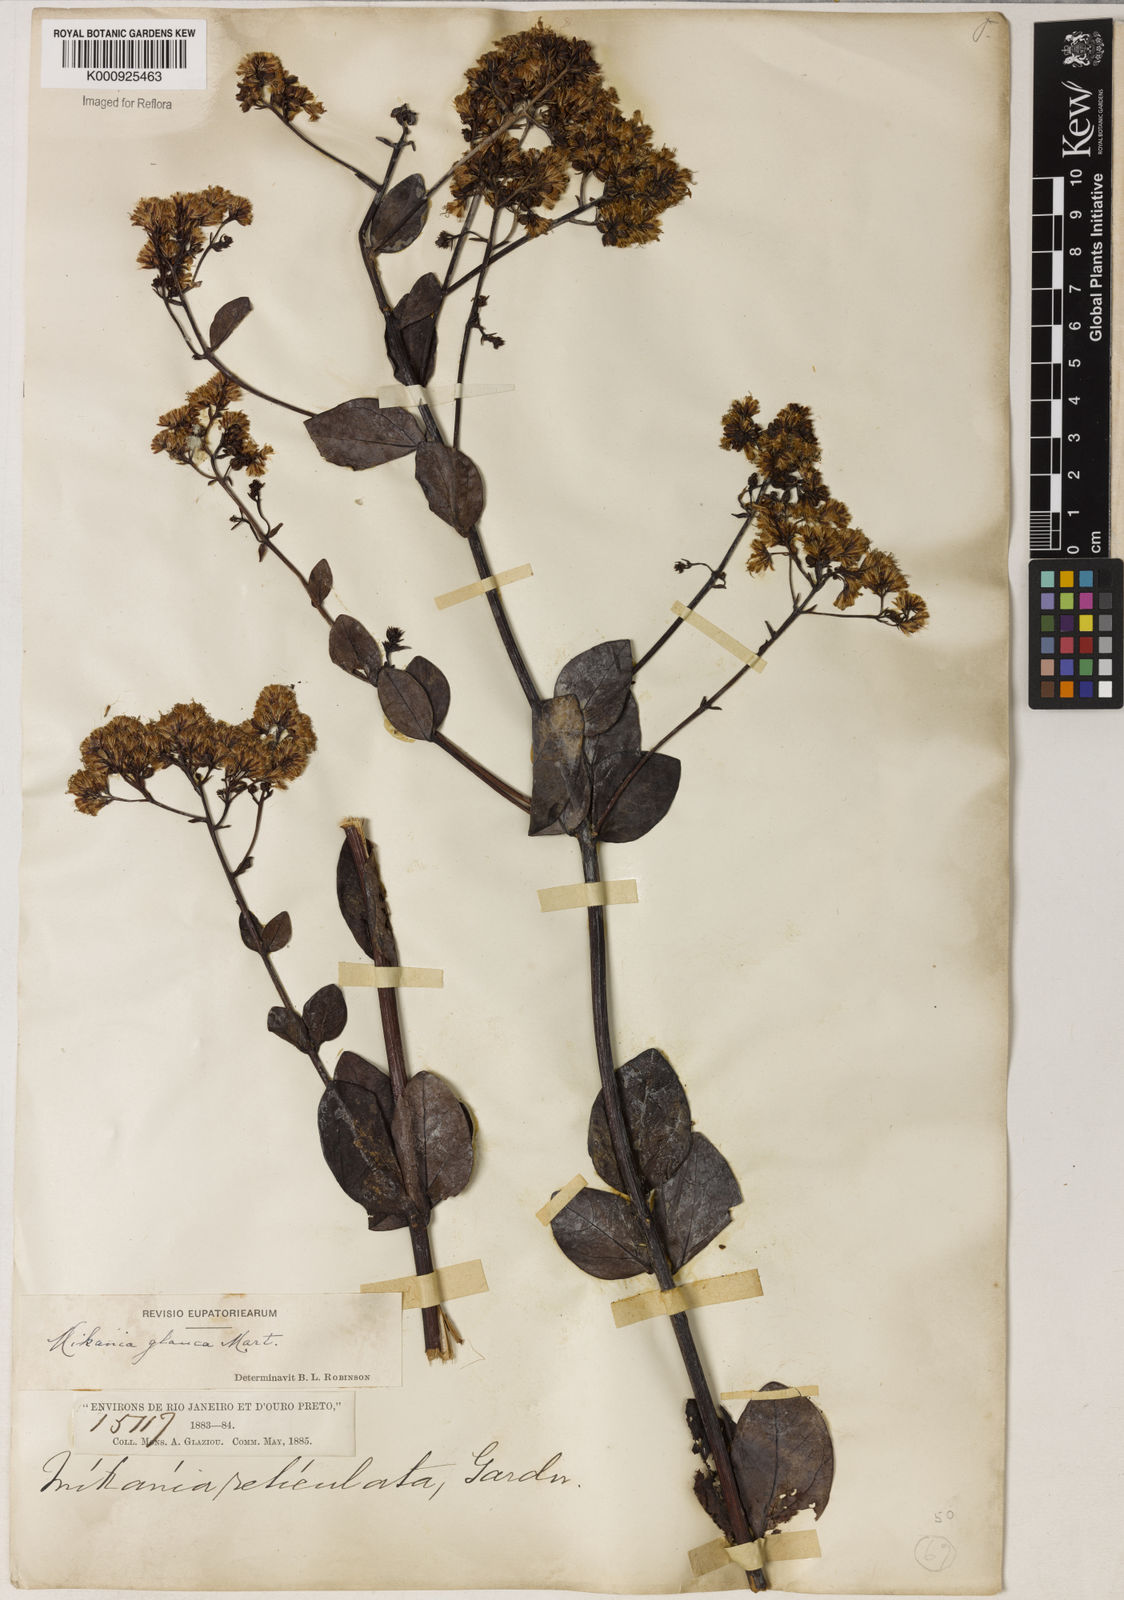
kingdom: Plantae
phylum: Tracheophyta
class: Magnoliopsida
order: Asterales
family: Asteraceae
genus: Mikania
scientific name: Mikania glauca
